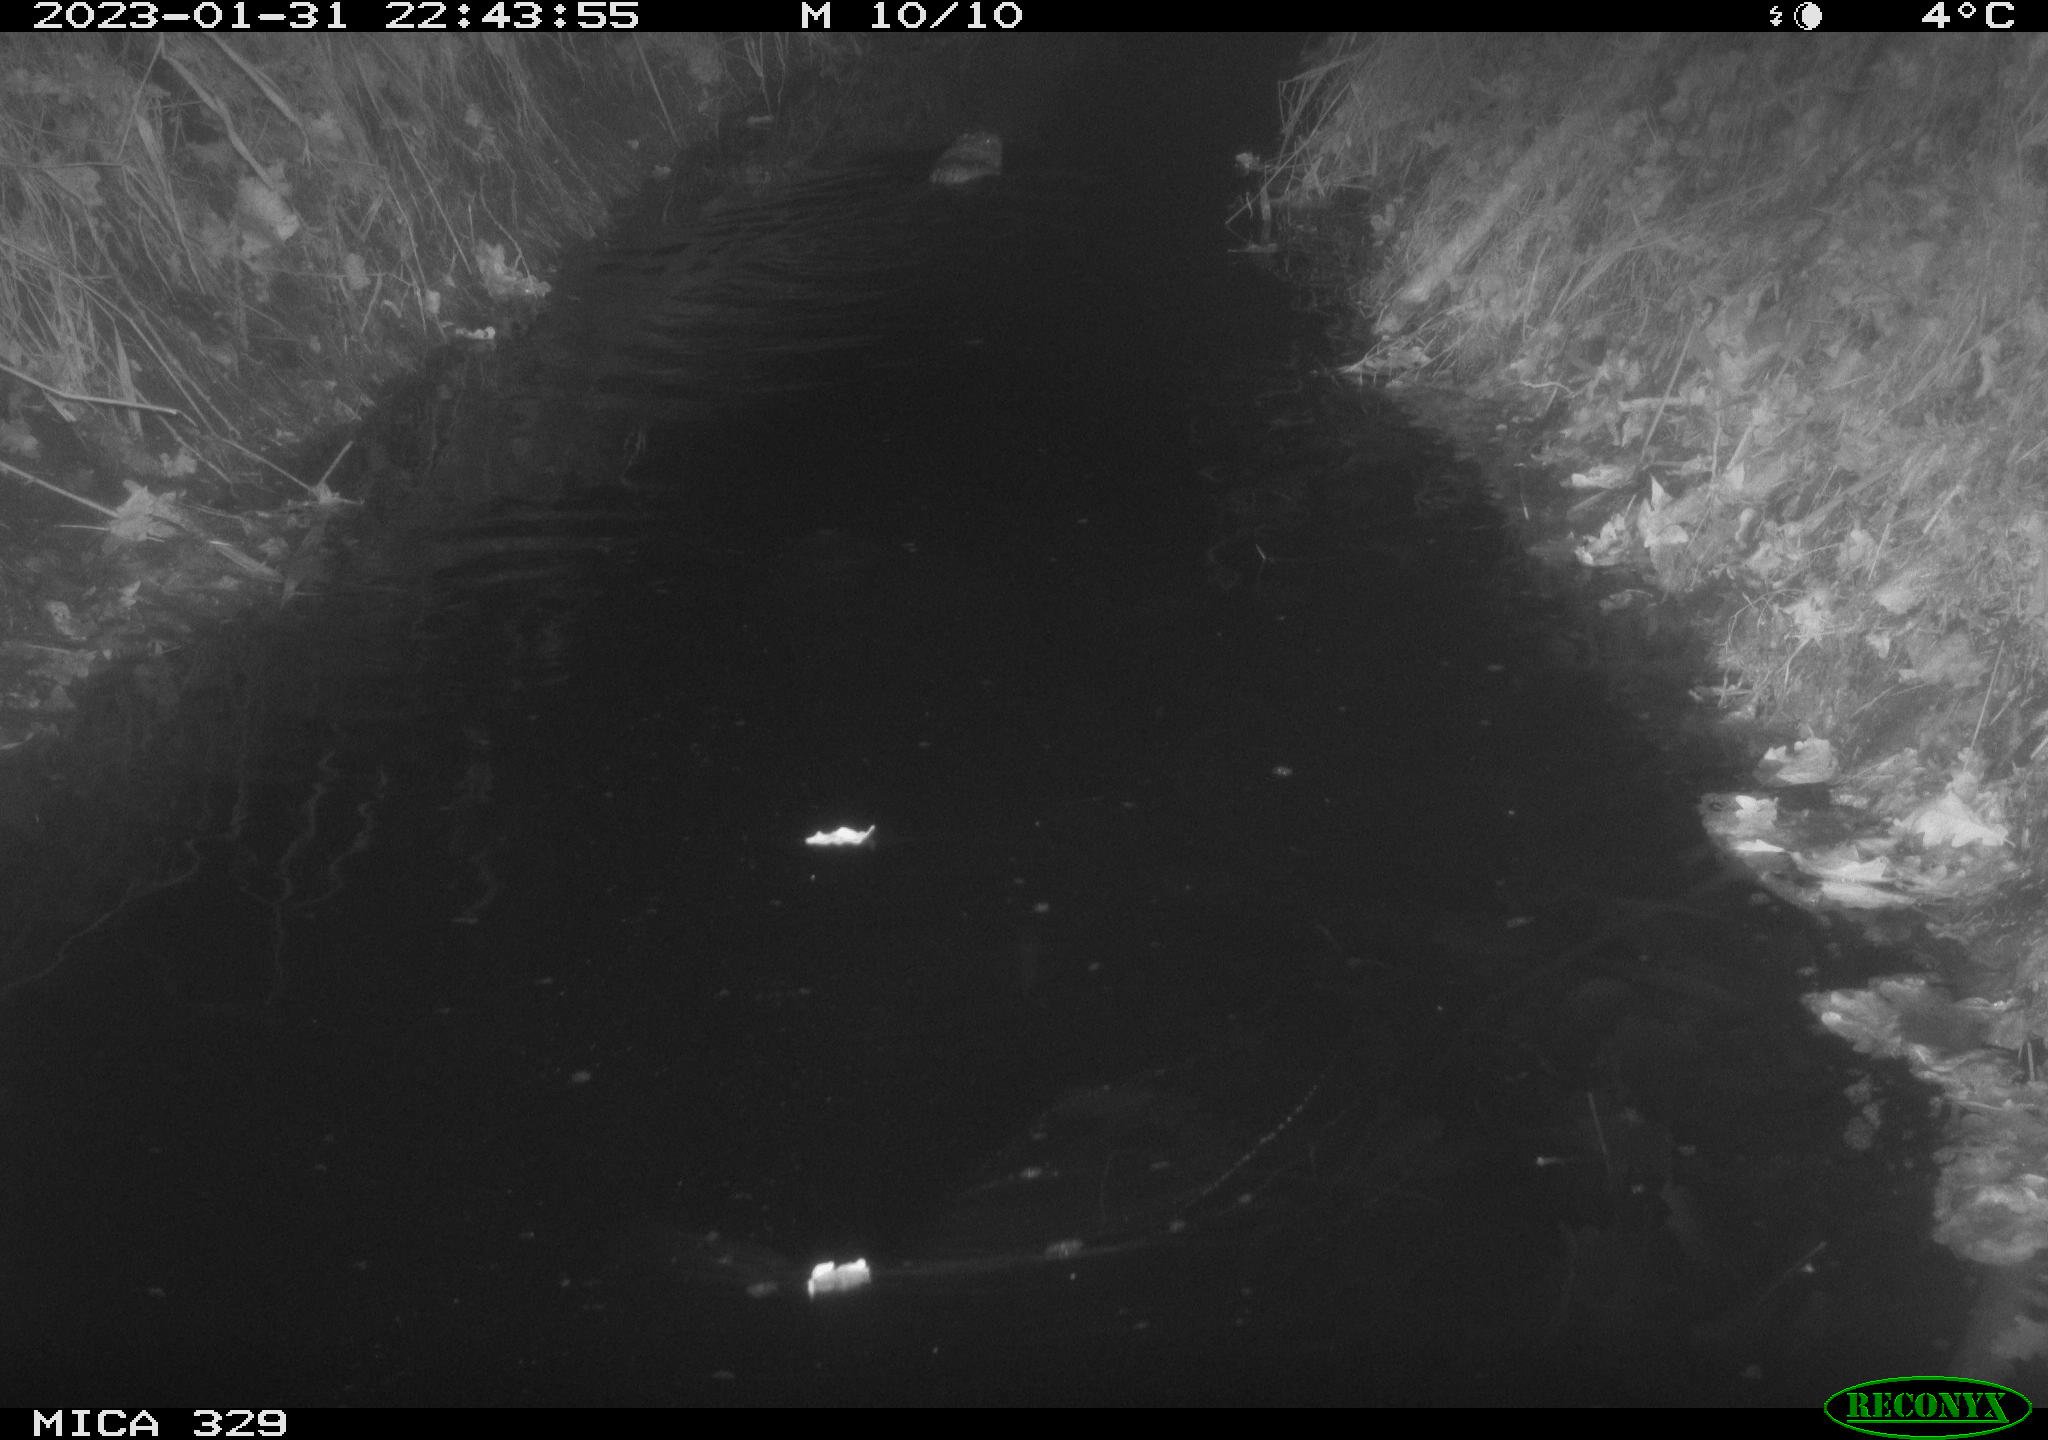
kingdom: Animalia
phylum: Chordata
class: Mammalia
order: Rodentia
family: Cricetidae
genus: Ondatra
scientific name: Ondatra zibethicus
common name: Muskrat
